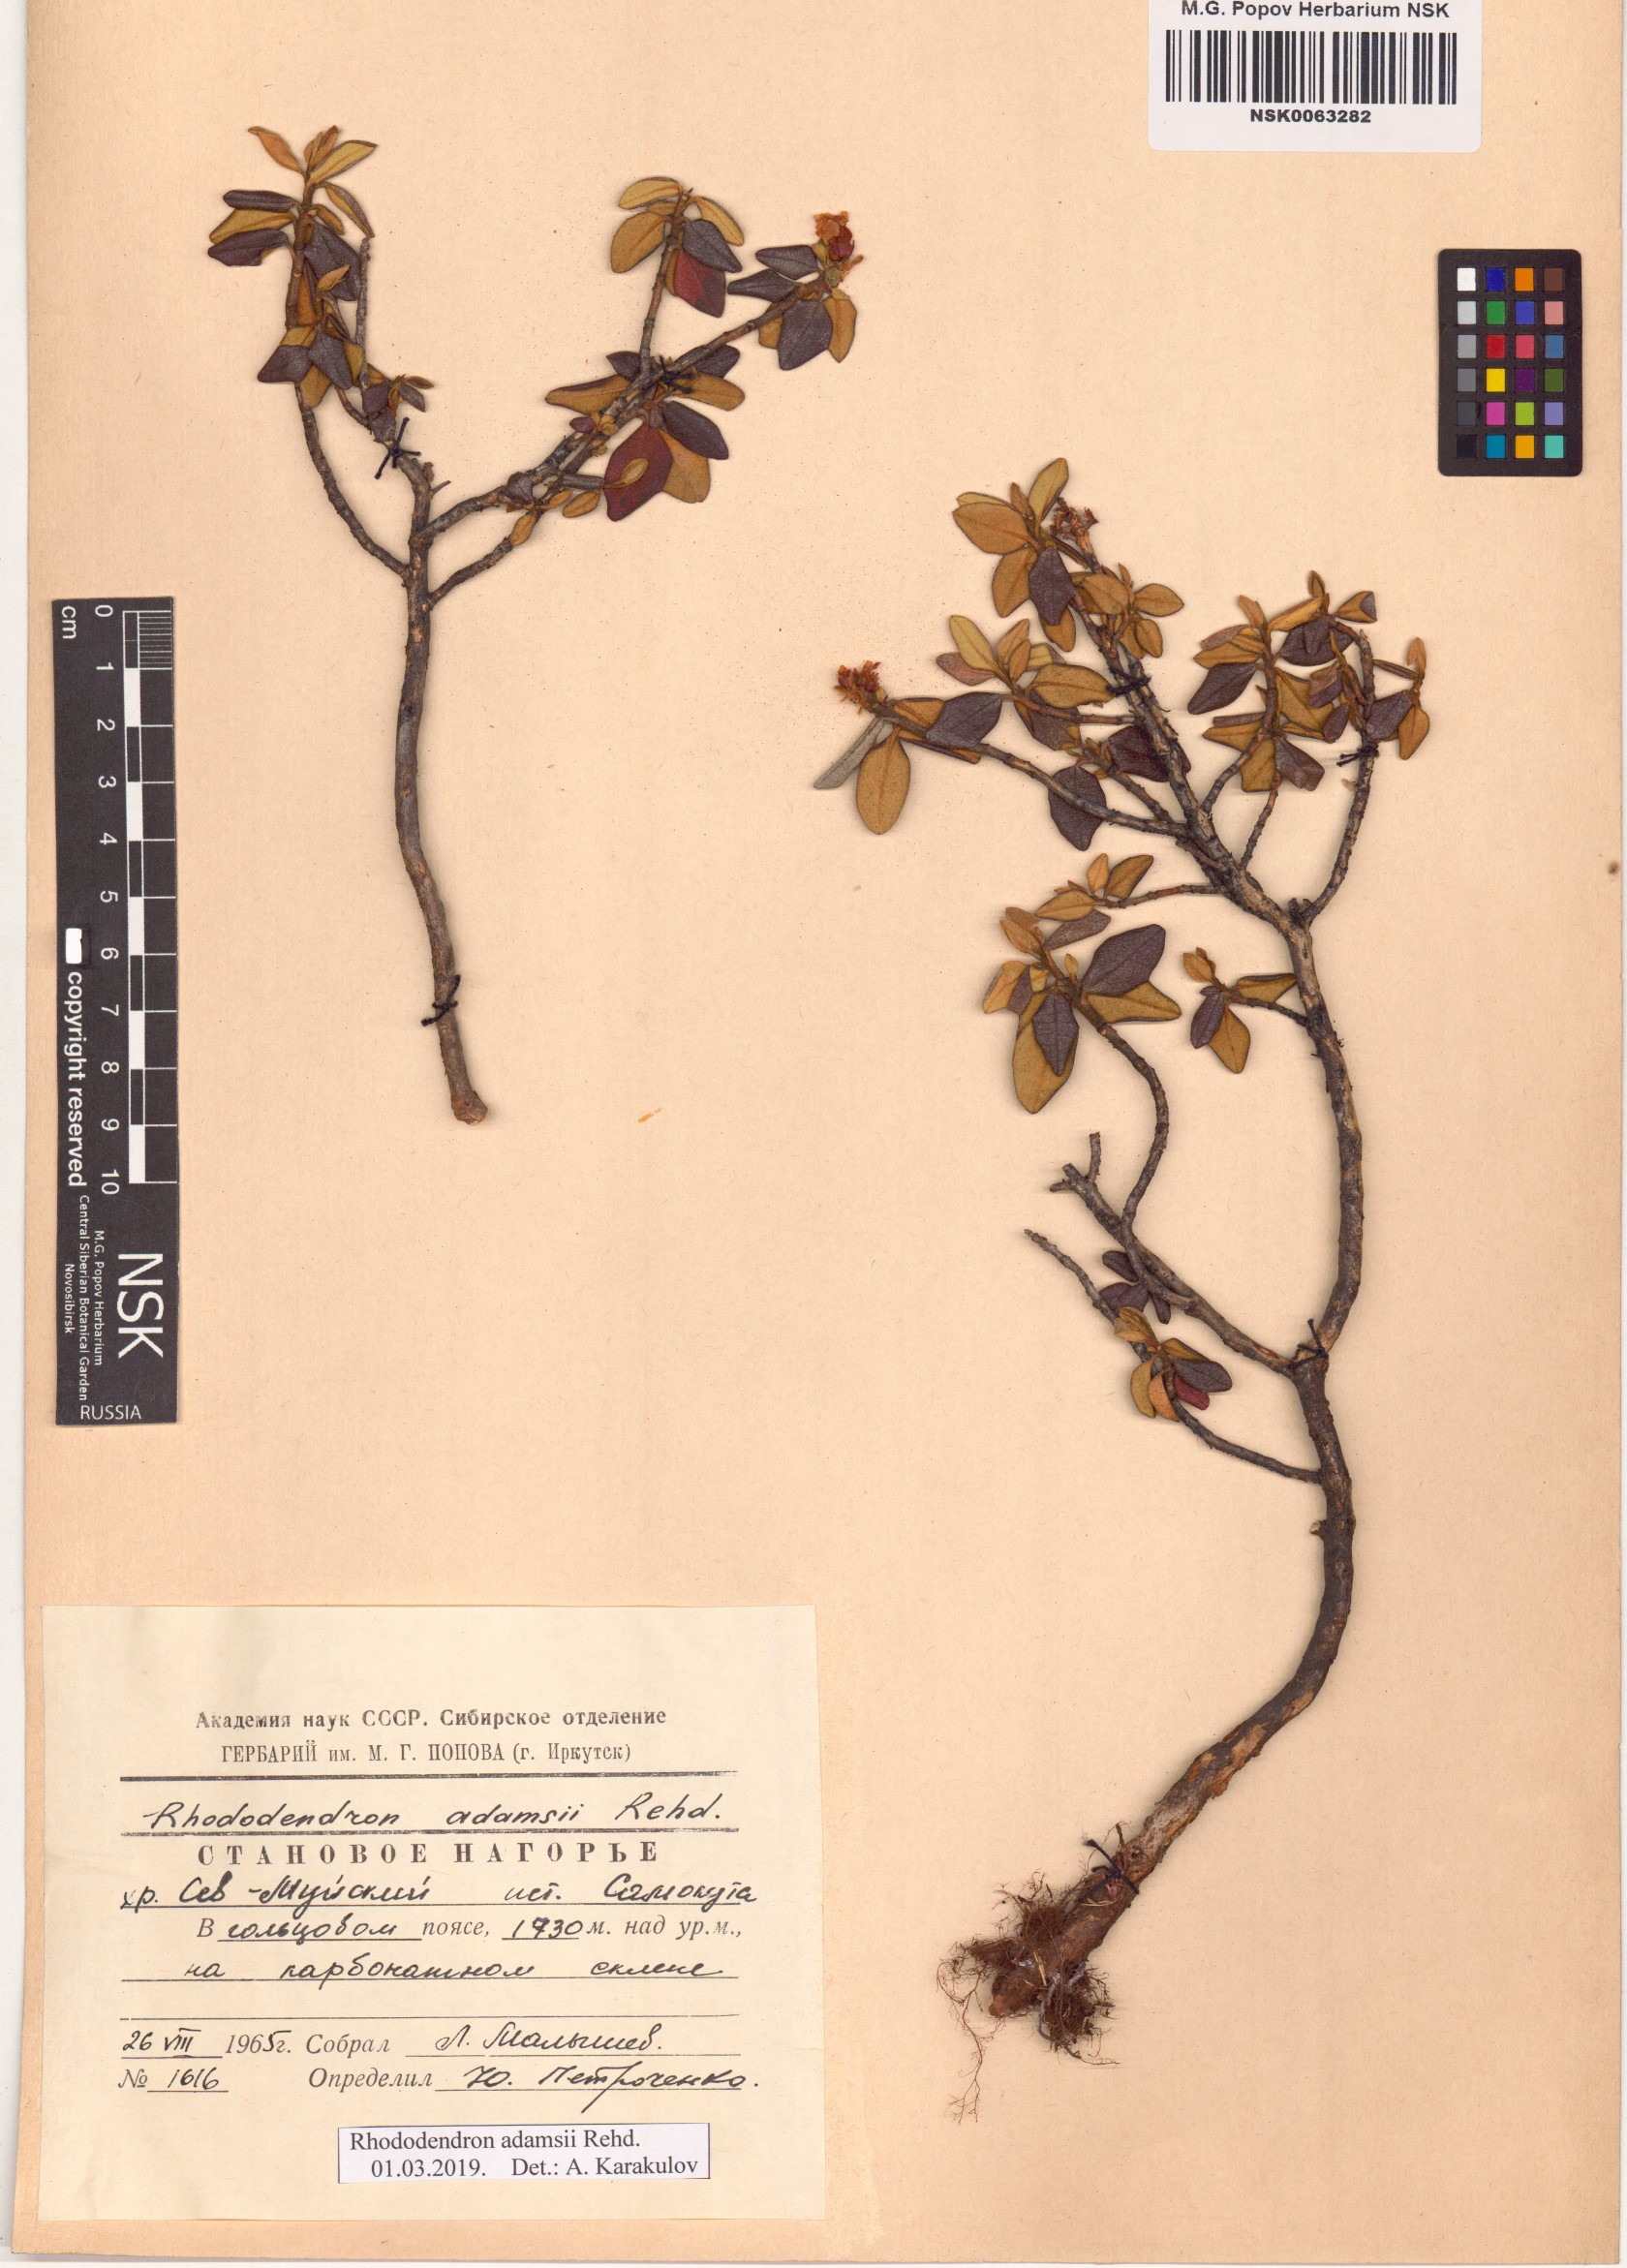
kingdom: Plantae
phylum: Tracheophyta
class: Magnoliopsida
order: Ericales
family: Ericaceae
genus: Rhododendron
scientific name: Rhododendron adamsii
